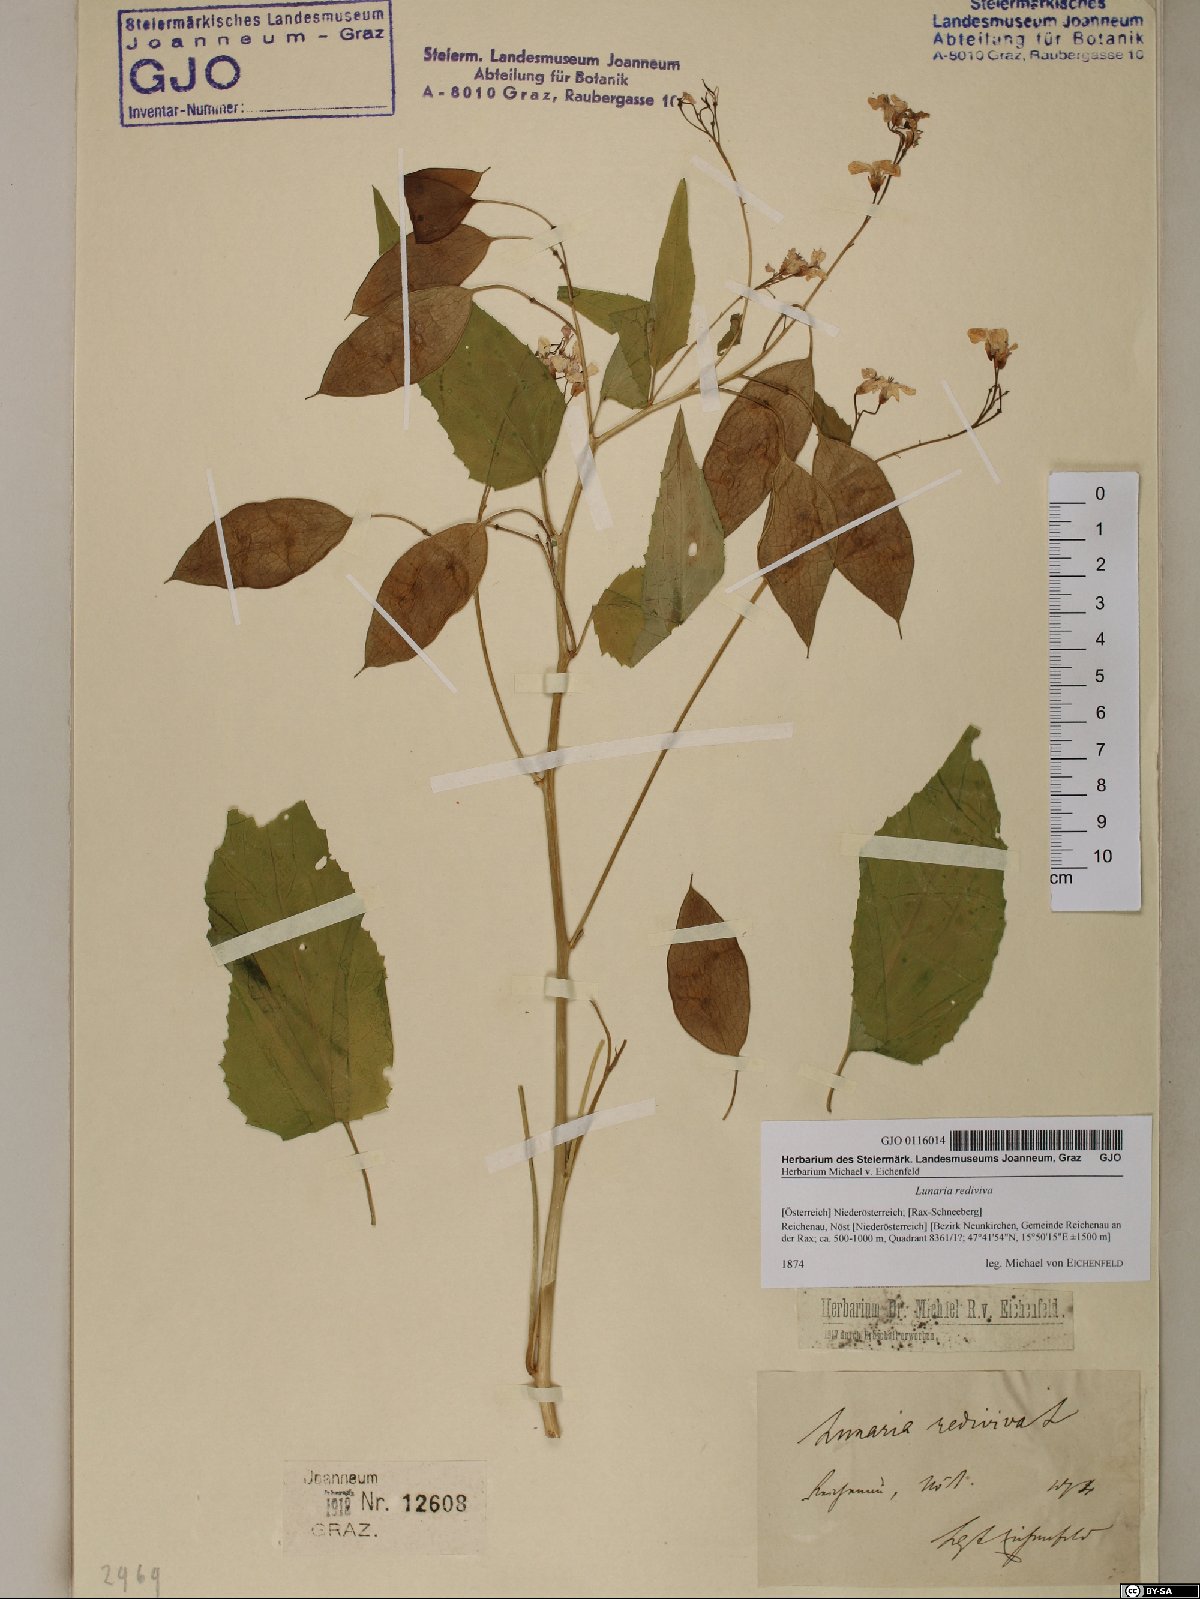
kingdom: Plantae
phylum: Tracheophyta
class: Magnoliopsida
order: Brassicales
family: Brassicaceae
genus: Lunaria
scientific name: Lunaria rediviva
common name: Perennial honesty
